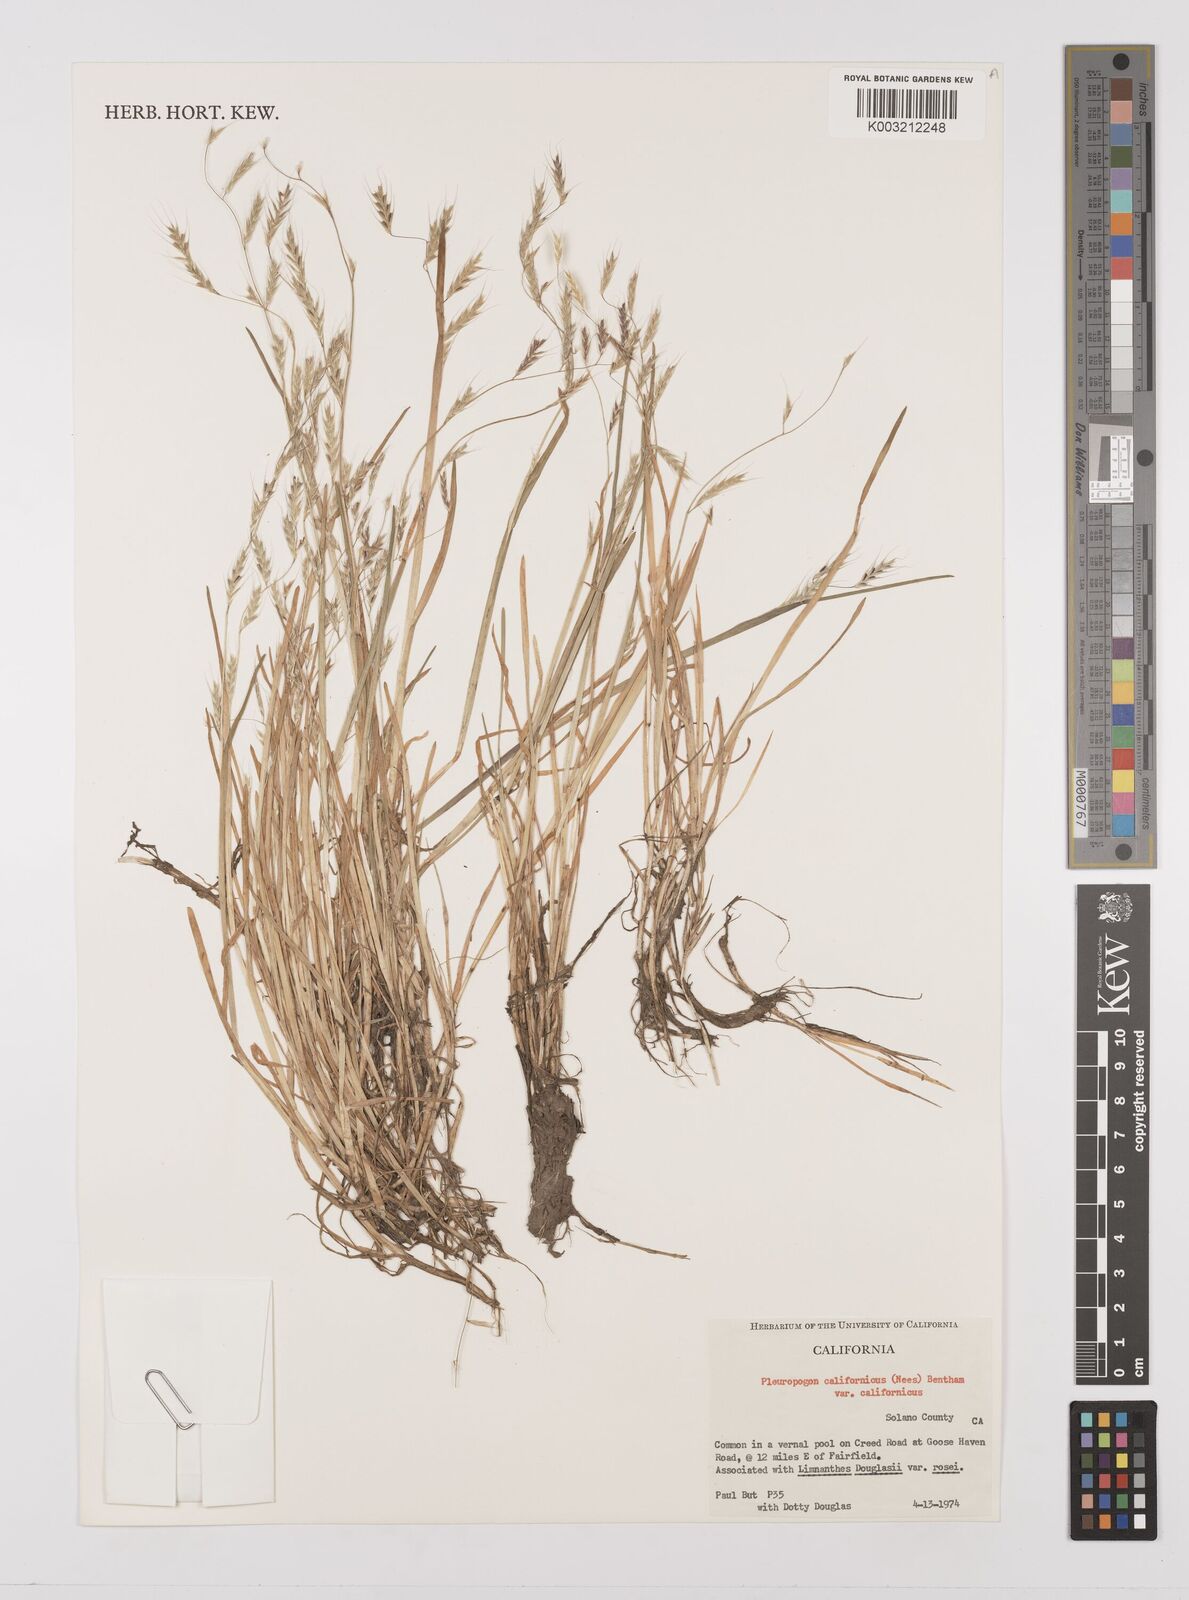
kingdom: Plantae
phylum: Tracheophyta
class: Liliopsida
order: Poales
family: Poaceae
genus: Pleuropogon
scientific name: Pleuropogon californicus
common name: California semaphore grass
